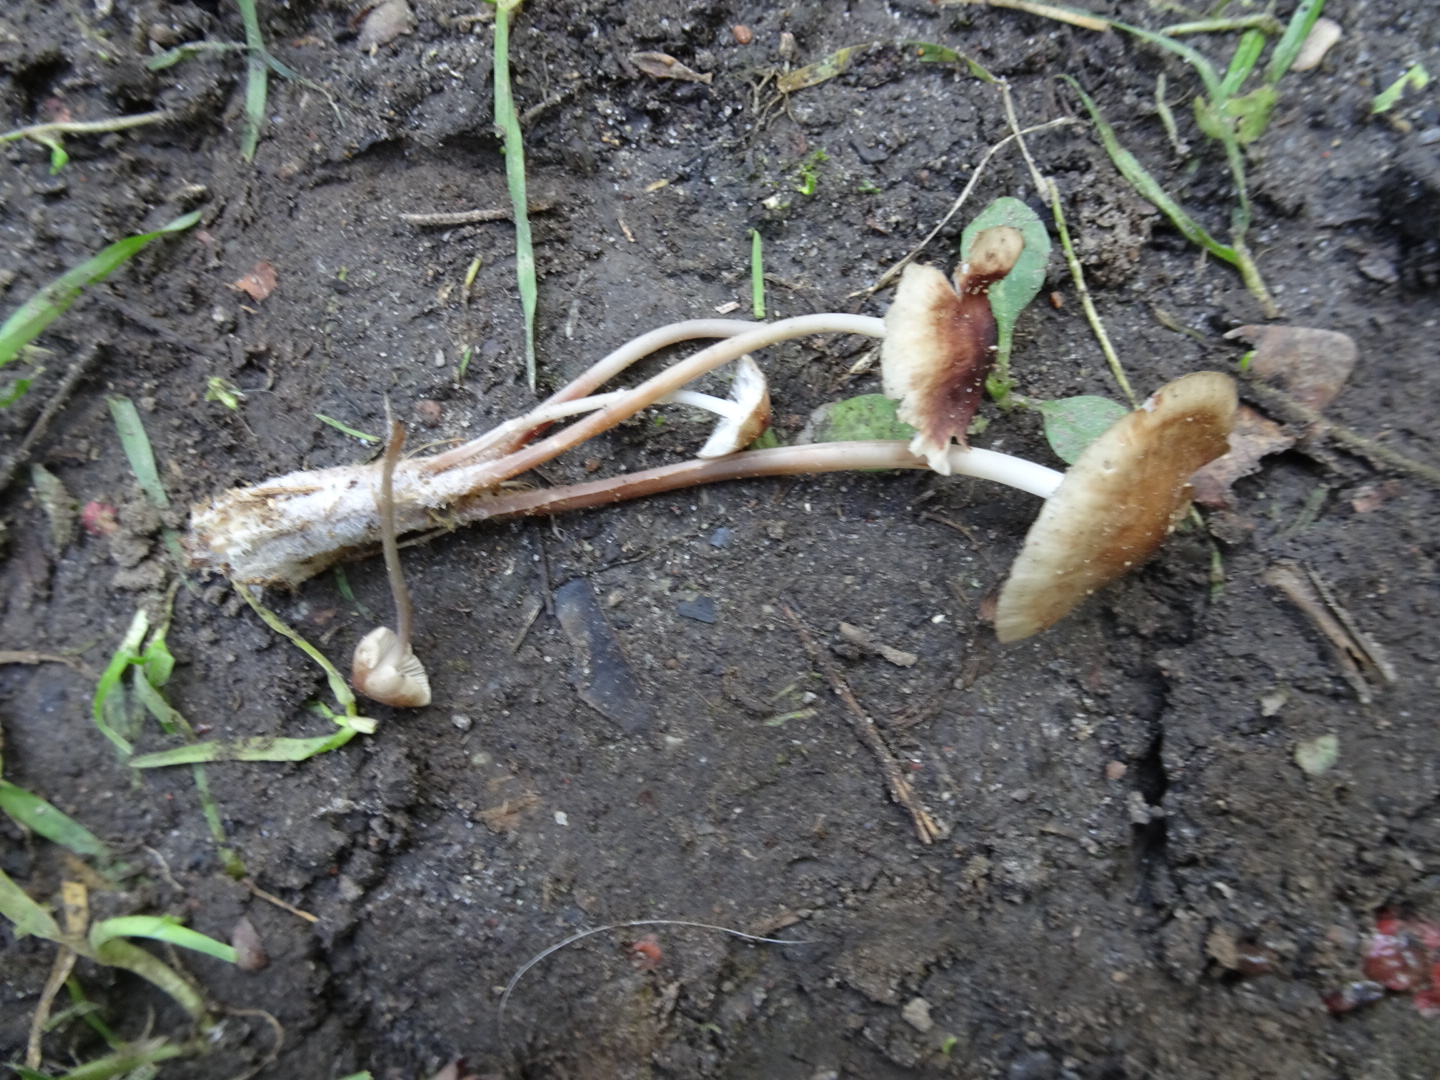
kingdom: Fungi
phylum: Basidiomycota
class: Agaricomycetes
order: Agaricales
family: Mycenaceae
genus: Mycena
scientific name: Mycena maculata
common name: rødplettet huesvamp
